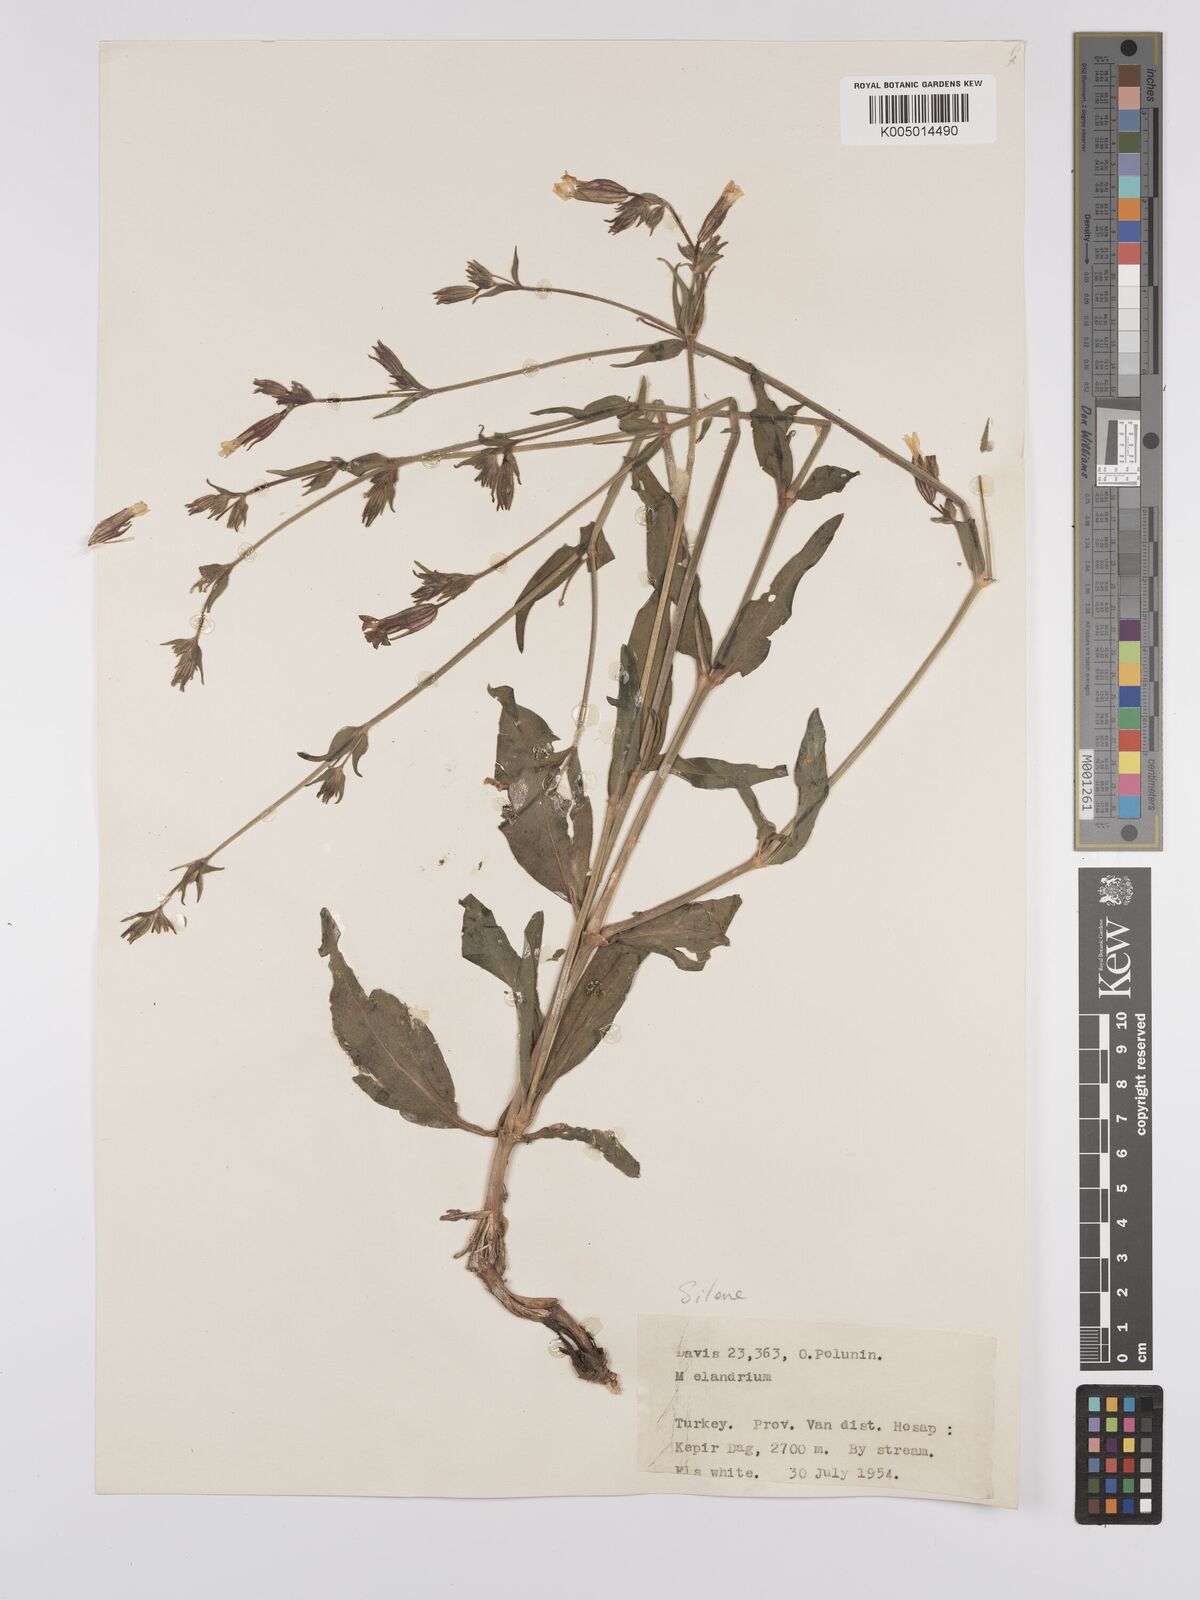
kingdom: Plantae
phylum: Tracheophyta
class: Magnoliopsida
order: Caryophyllales
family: Caryophyllaceae
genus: Silene
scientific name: Silene
